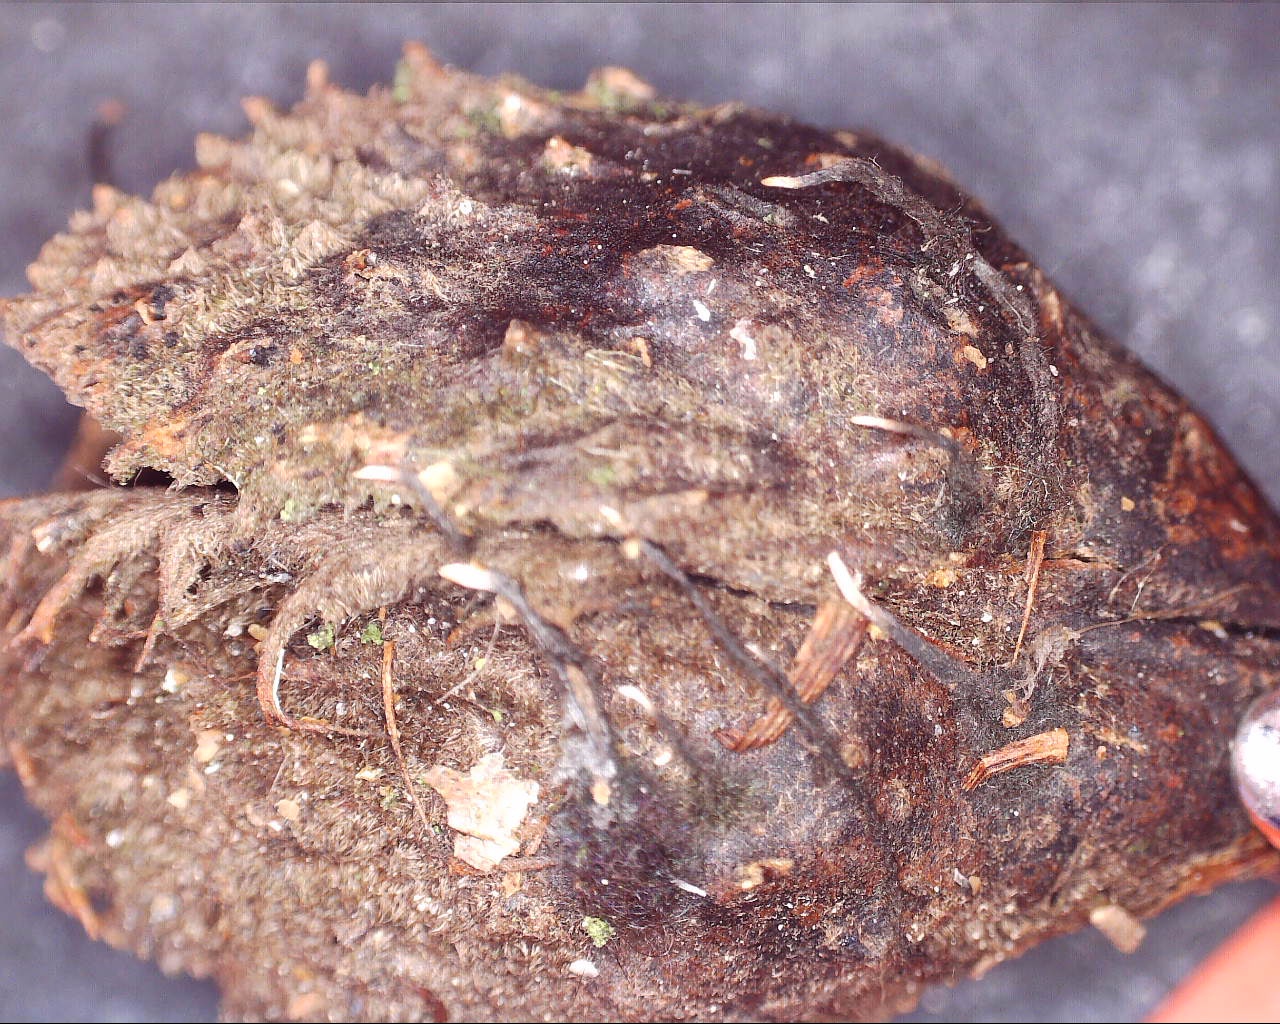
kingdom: Fungi
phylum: Ascomycota
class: Sordariomycetes
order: Xylariales
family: Xylariaceae
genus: Xylaria
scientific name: Xylaria carpophila
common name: bogskål-stødsvamp
